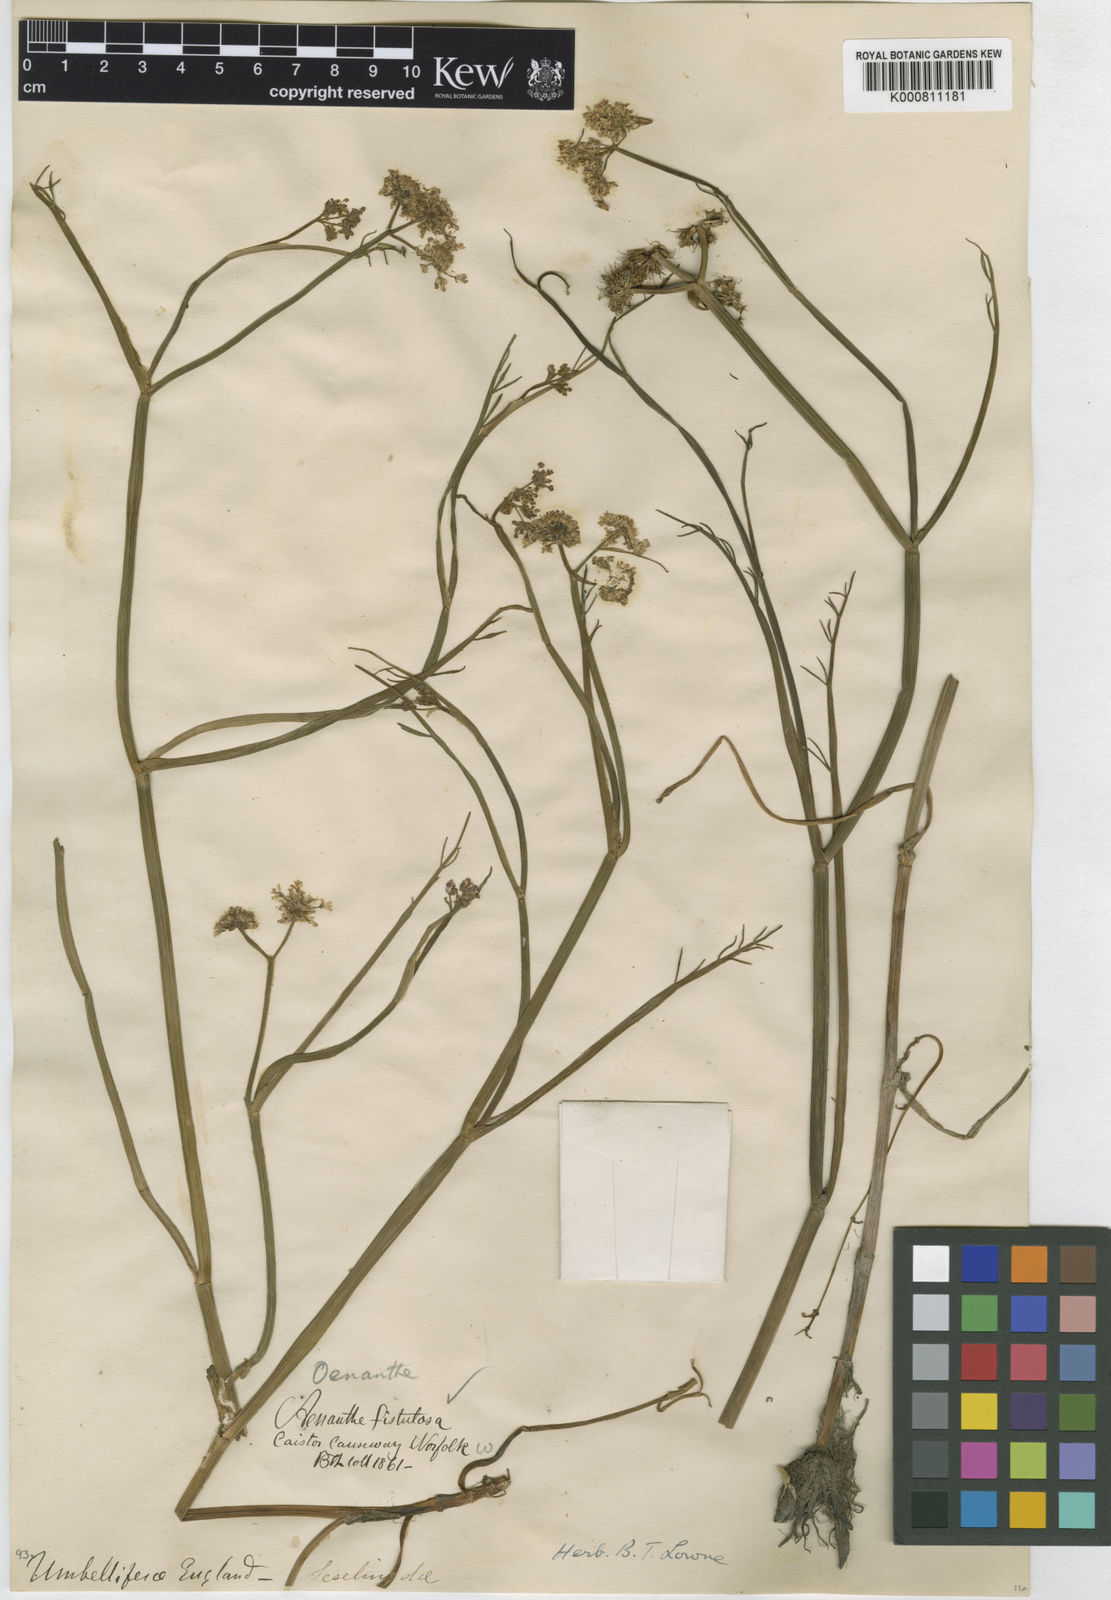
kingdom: Plantae
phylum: Tracheophyta
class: Magnoliopsida
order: Apiales
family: Apiaceae
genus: Oenanthe
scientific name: Oenanthe fistulosa
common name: Tubular water-dropwort
